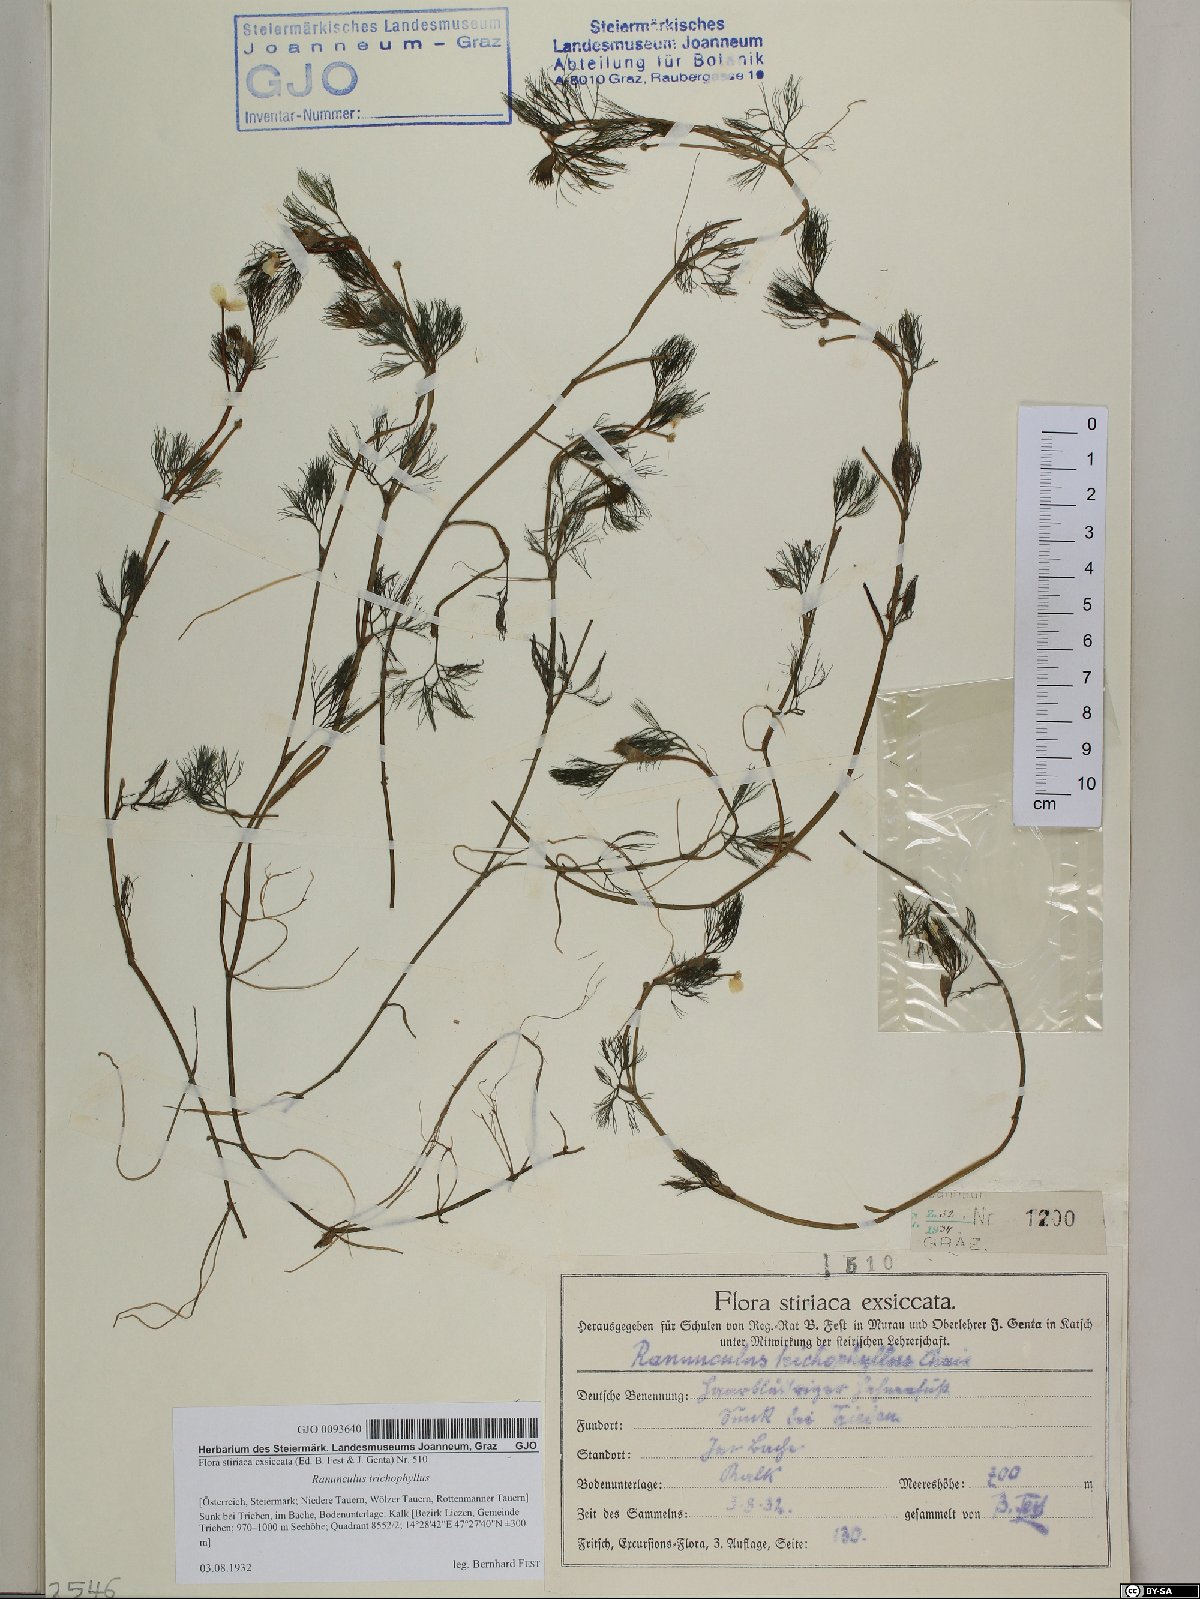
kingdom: Plantae
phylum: Tracheophyta
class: Magnoliopsida
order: Ranunculales
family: Ranunculaceae
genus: Ranunculus
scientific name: Ranunculus trichophyllus
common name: Thread-leaved water-crowfoot
